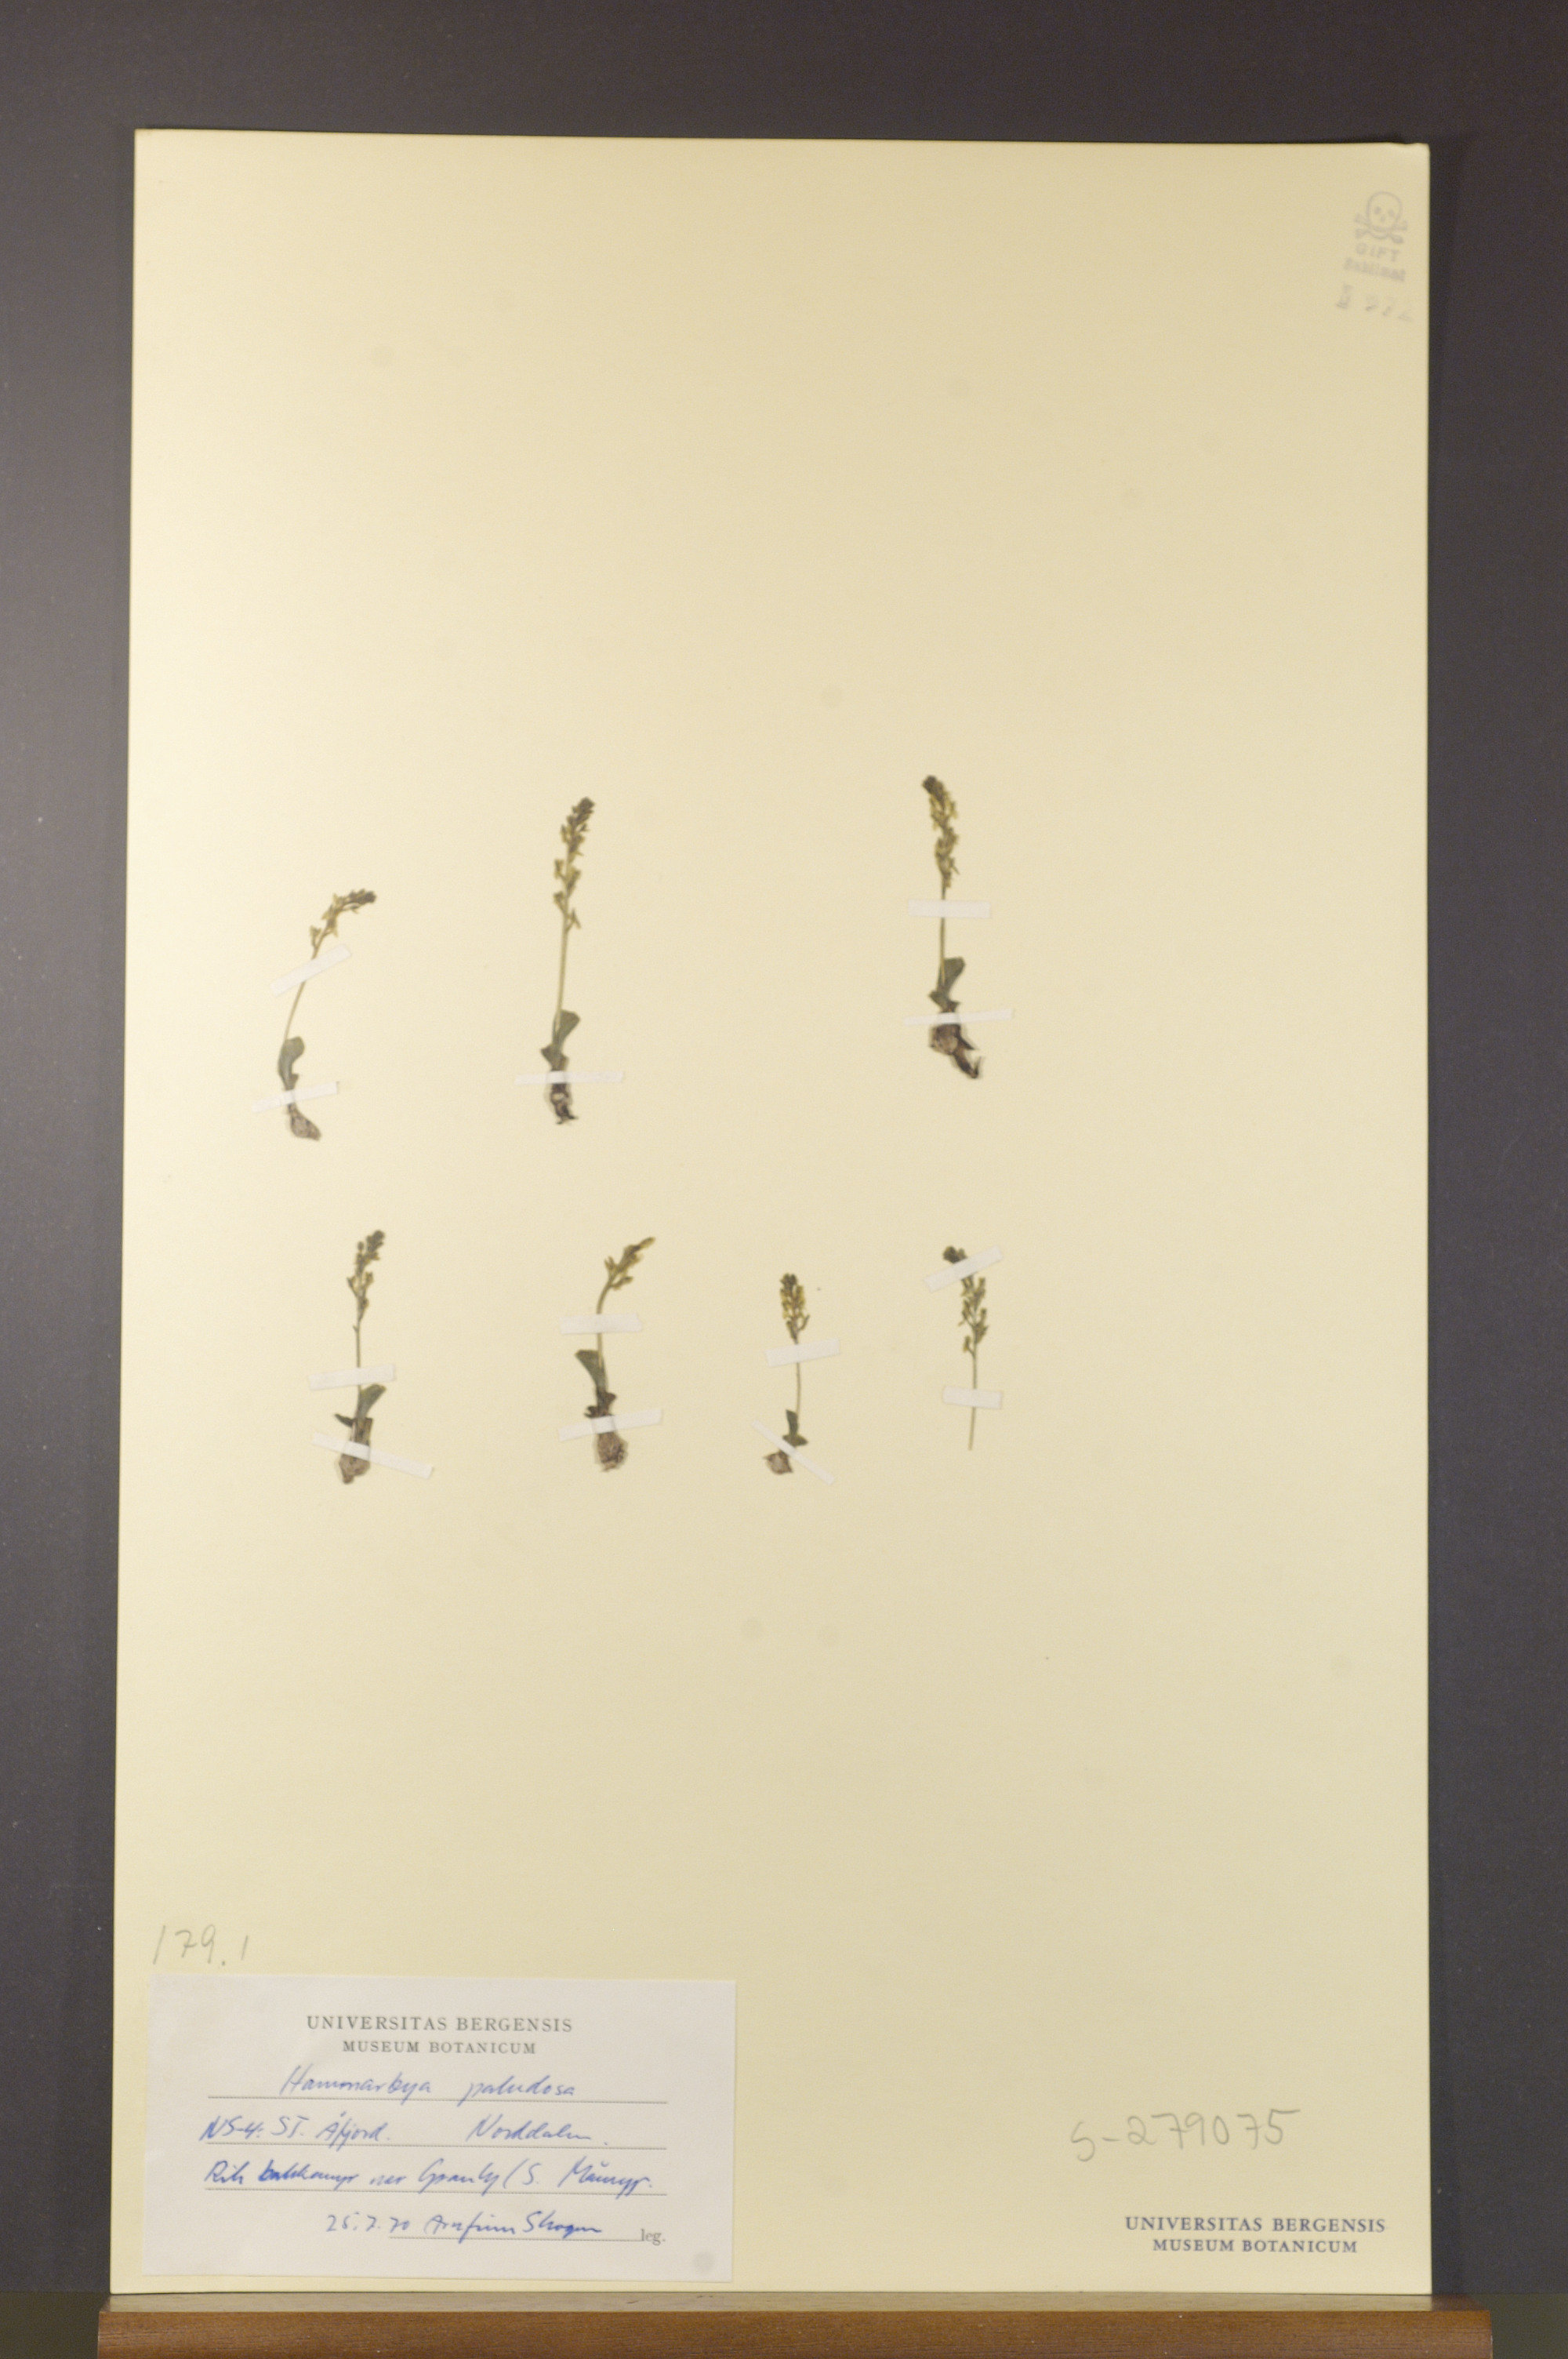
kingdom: Plantae
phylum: Tracheophyta
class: Liliopsida
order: Asparagales
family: Orchidaceae
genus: Hammarbya
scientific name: Hammarbya paludosa
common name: Bog orchid
